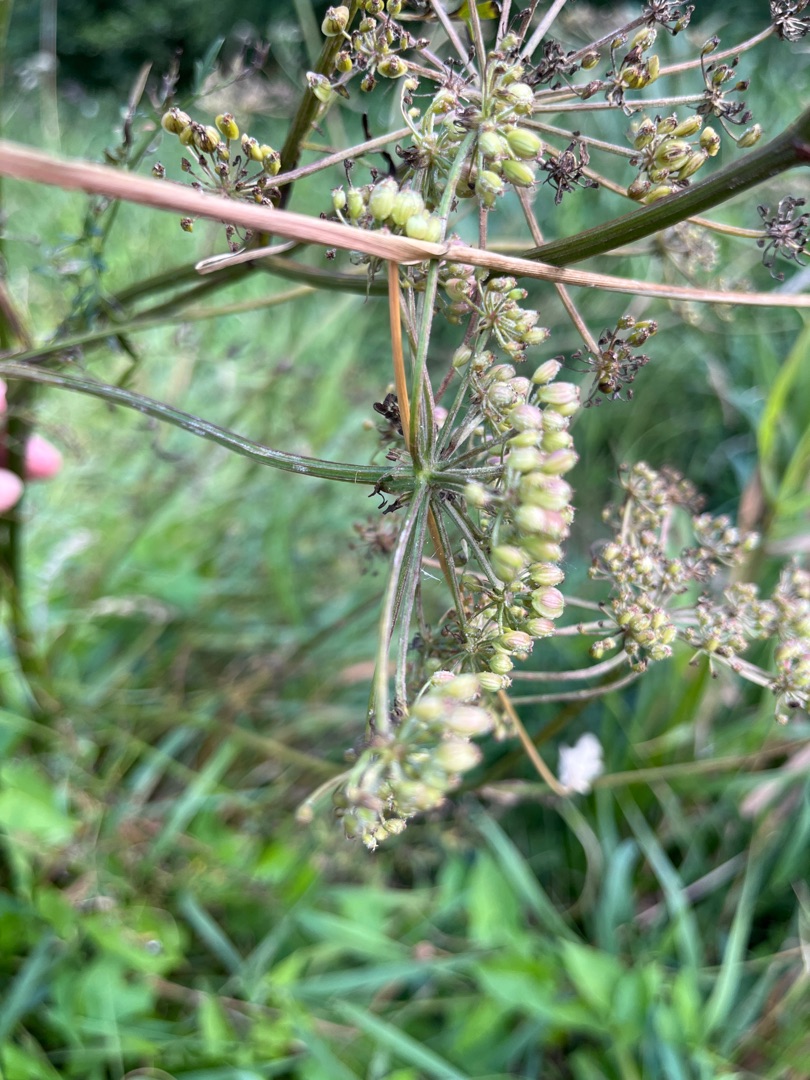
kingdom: Plantae
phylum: Tracheophyta
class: Magnoliopsida
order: Apiales
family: Apiaceae
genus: Thysselinum
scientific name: Thysselinum palustre
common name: Kær-svovlrod
